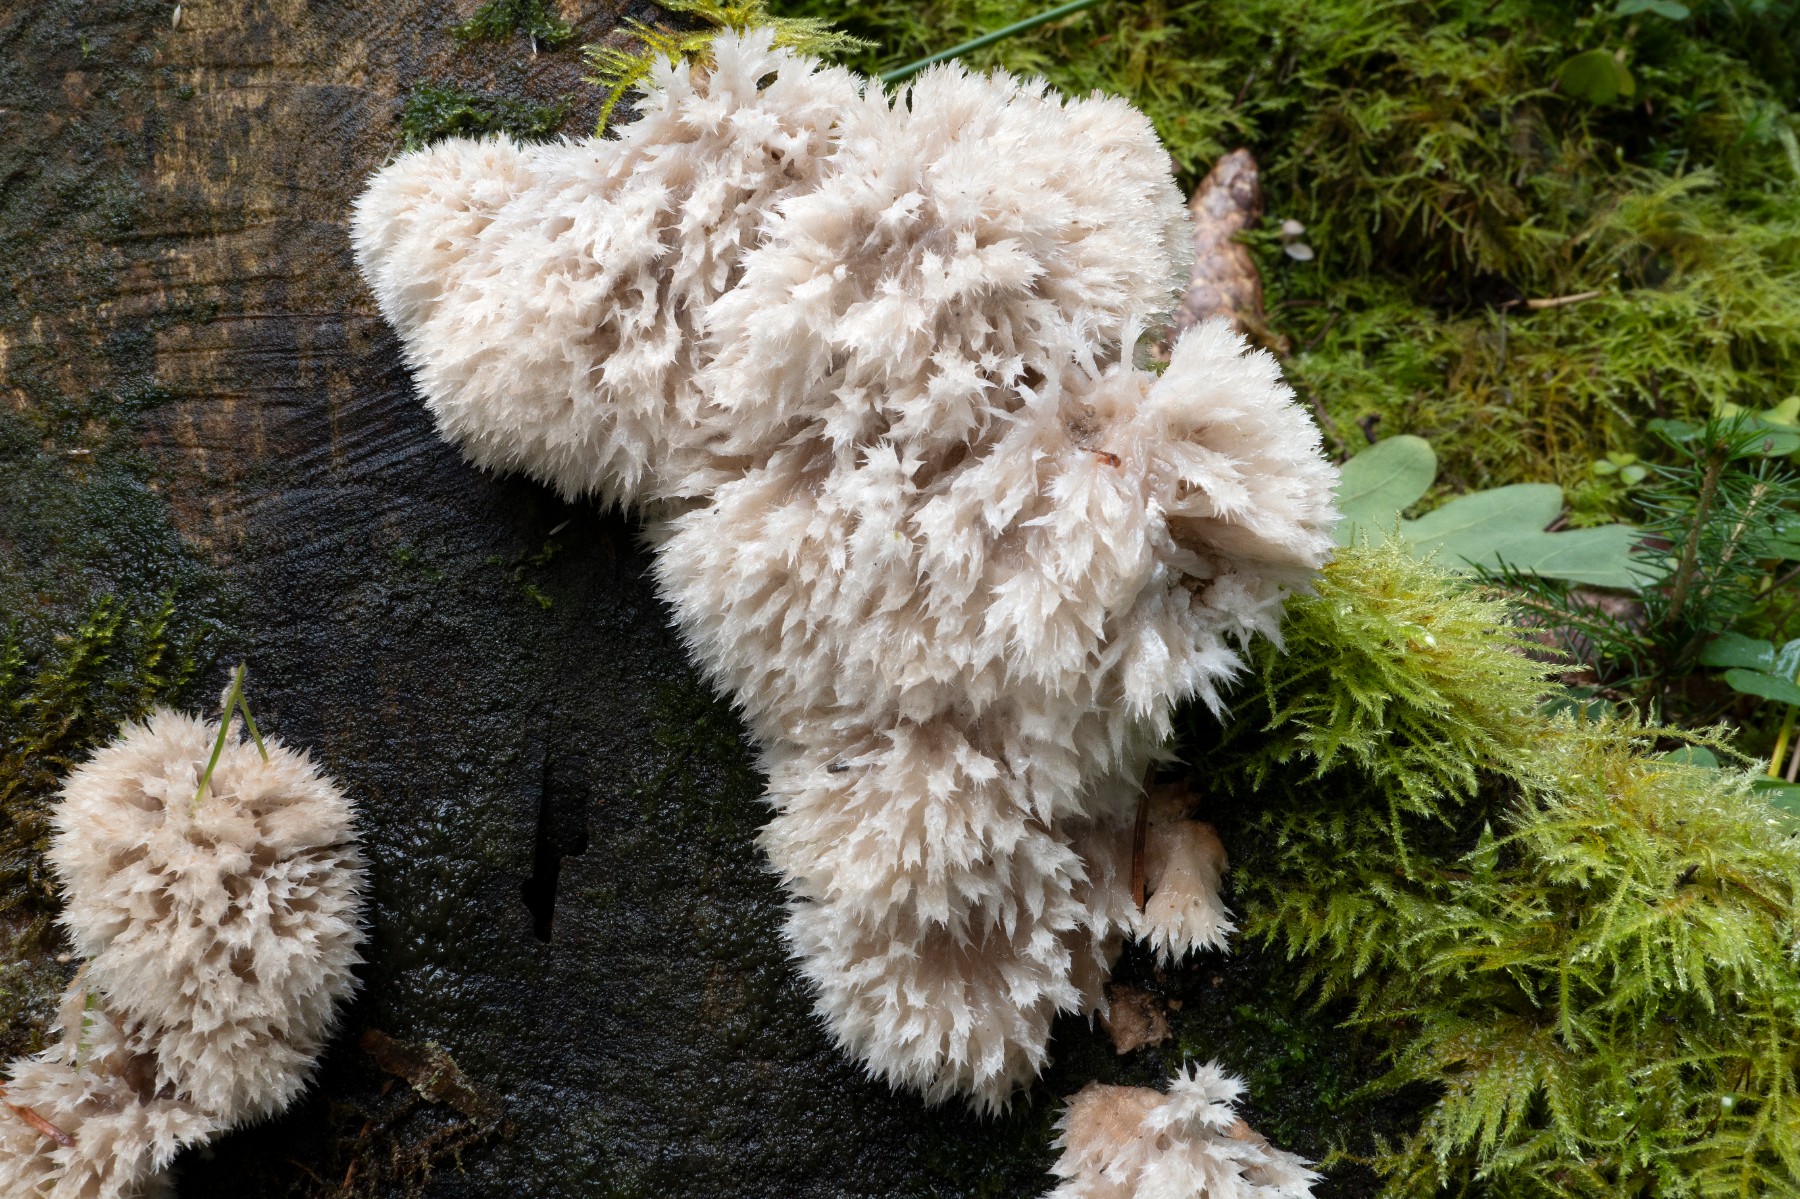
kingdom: Fungi
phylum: Basidiomycota
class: Agaricomycetes
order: Polyporales
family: Dacryobolaceae
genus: Postia
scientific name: Postia ptychogaster
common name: støvende kødporesvamp
